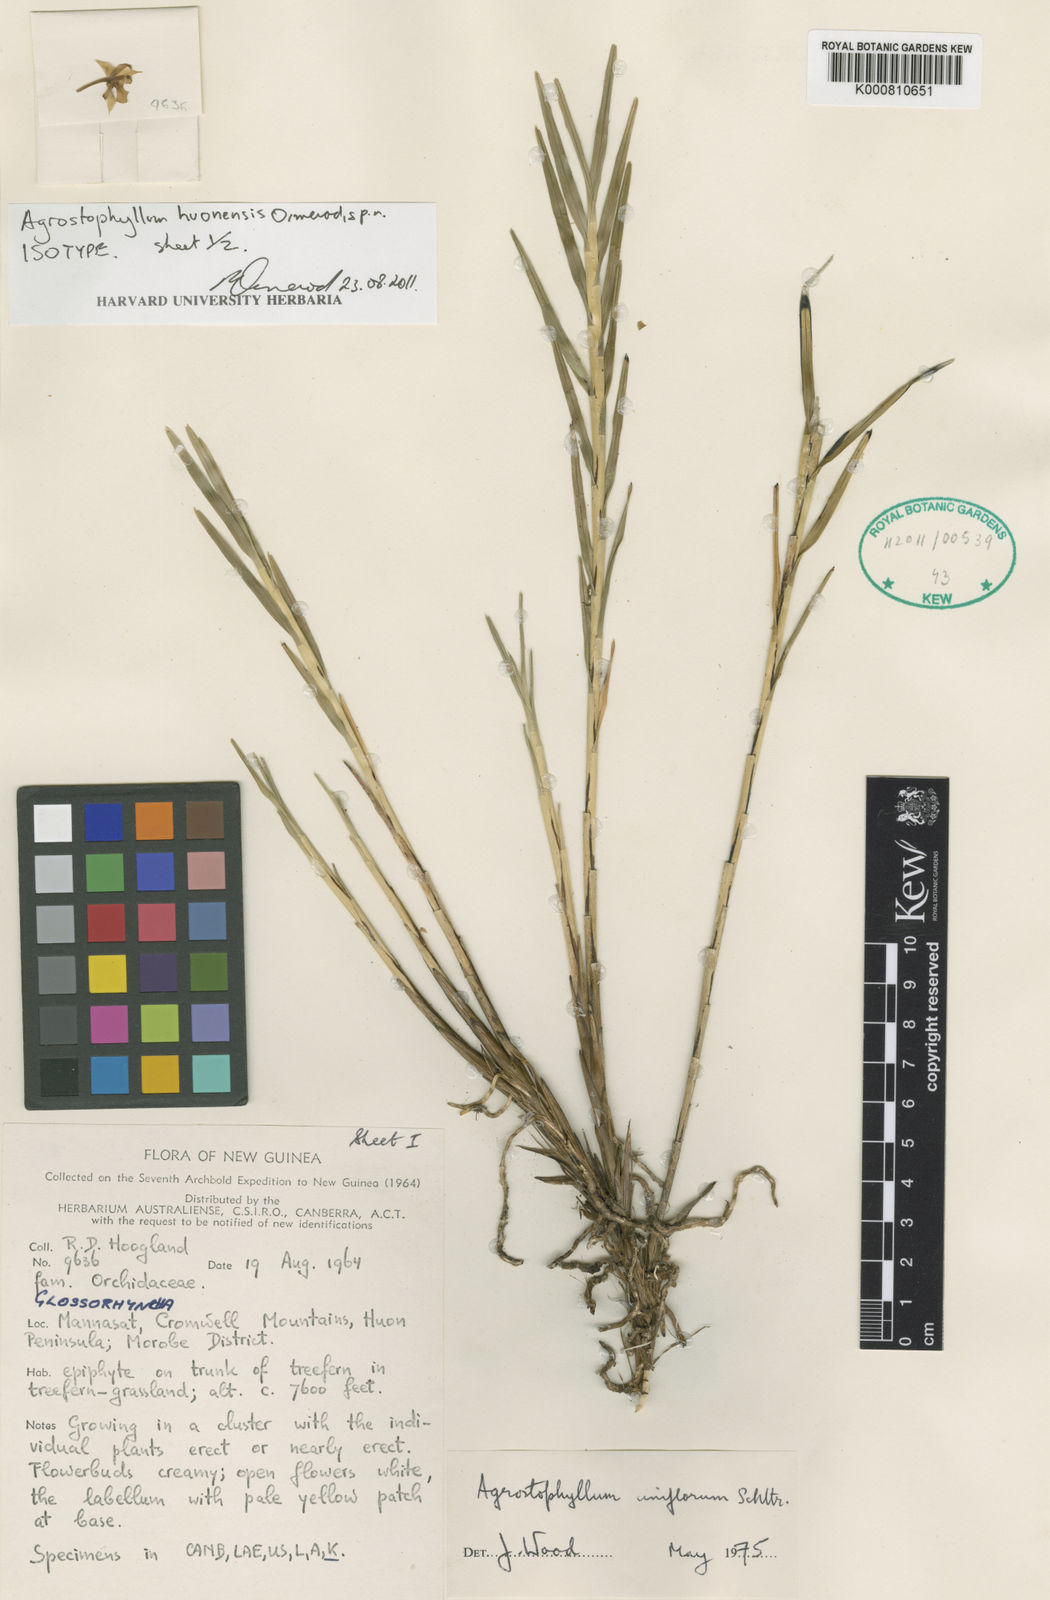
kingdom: Plantae
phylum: Tracheophyta
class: Liliopsida
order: Asparagales
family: Orchidaceae
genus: Agrostophyllum
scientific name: Agrostophyllum
